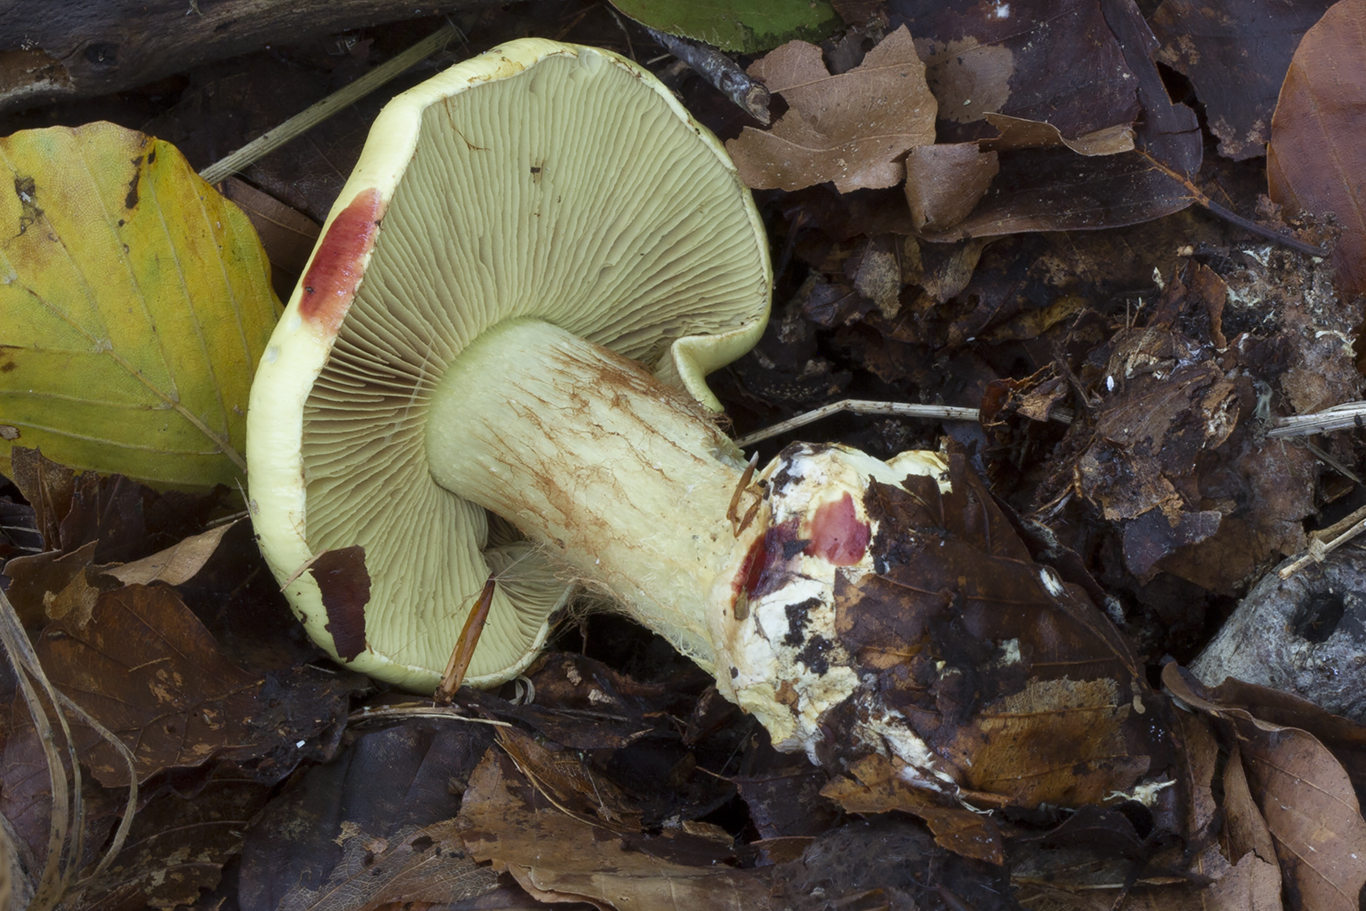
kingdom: Fungi
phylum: Basidiomycota
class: Agaricomycetes
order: Agaricales
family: Cortinariaceae
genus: Calonarius
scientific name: Calonarius elegantissimus
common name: orangegylden slørhat
